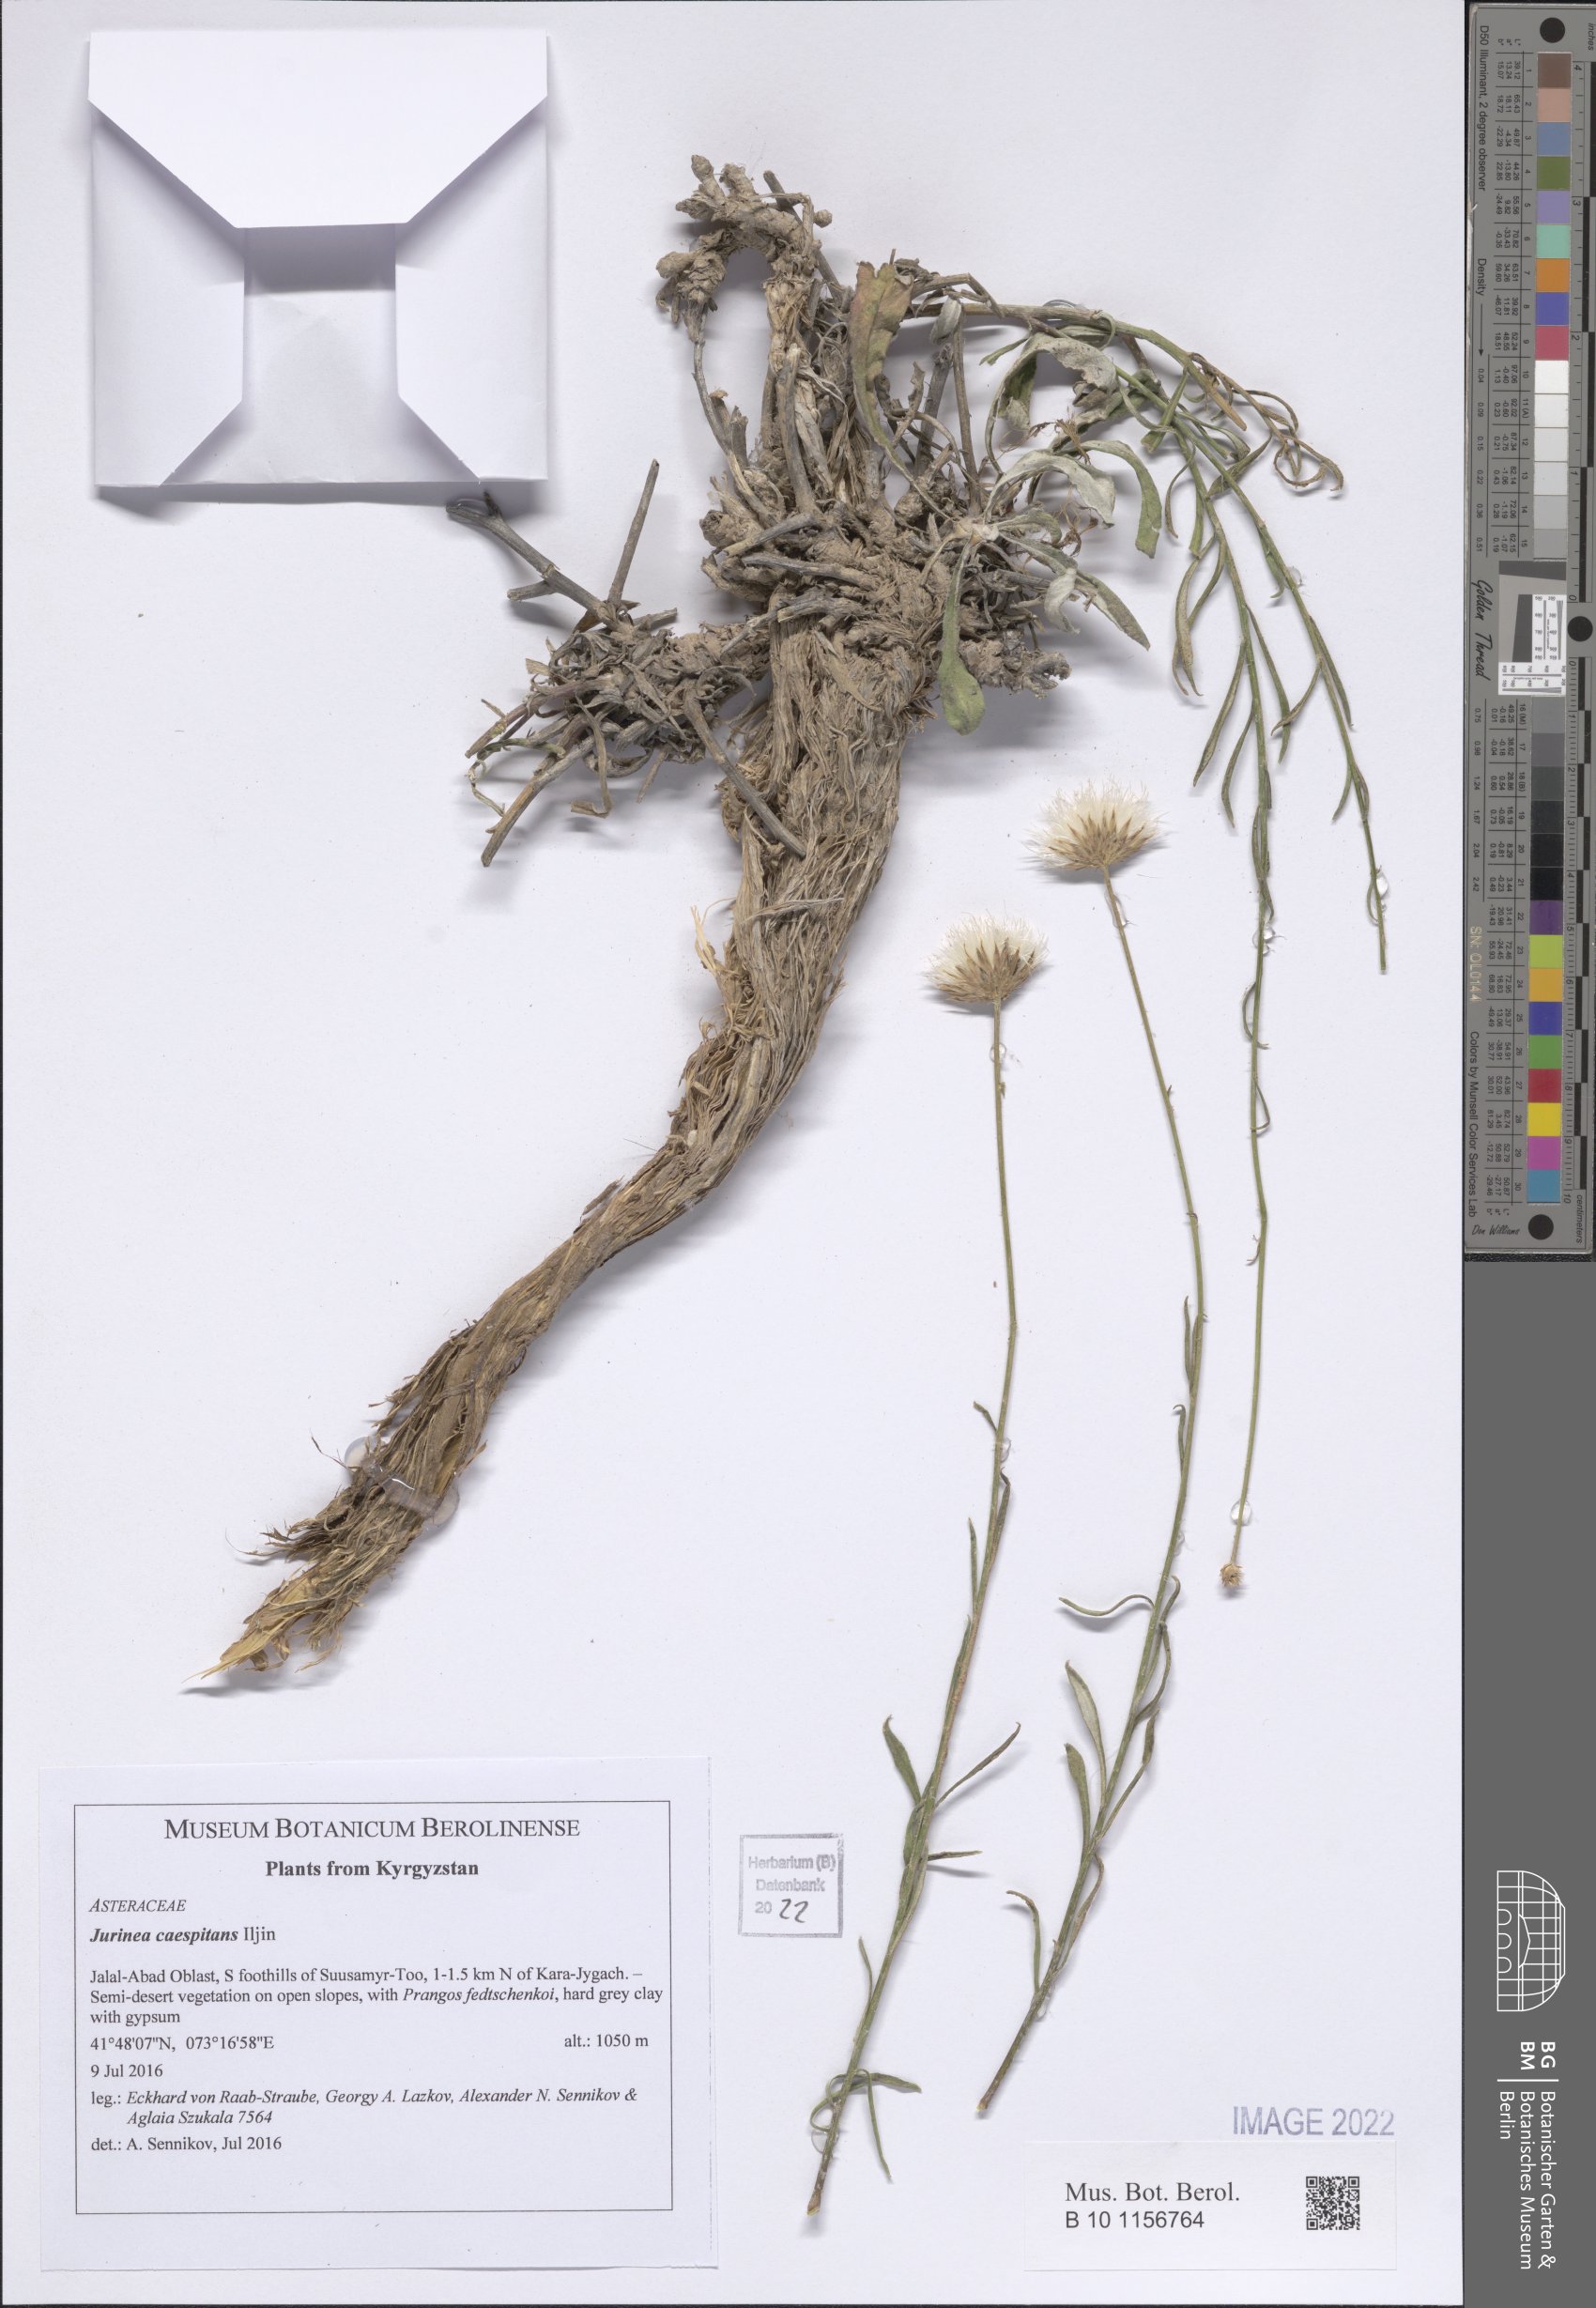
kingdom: Plantae
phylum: Tracheophyta
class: Magnoliopsida
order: Asterales
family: Asteraceae
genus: Jurinea
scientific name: Jurinea caespitans
